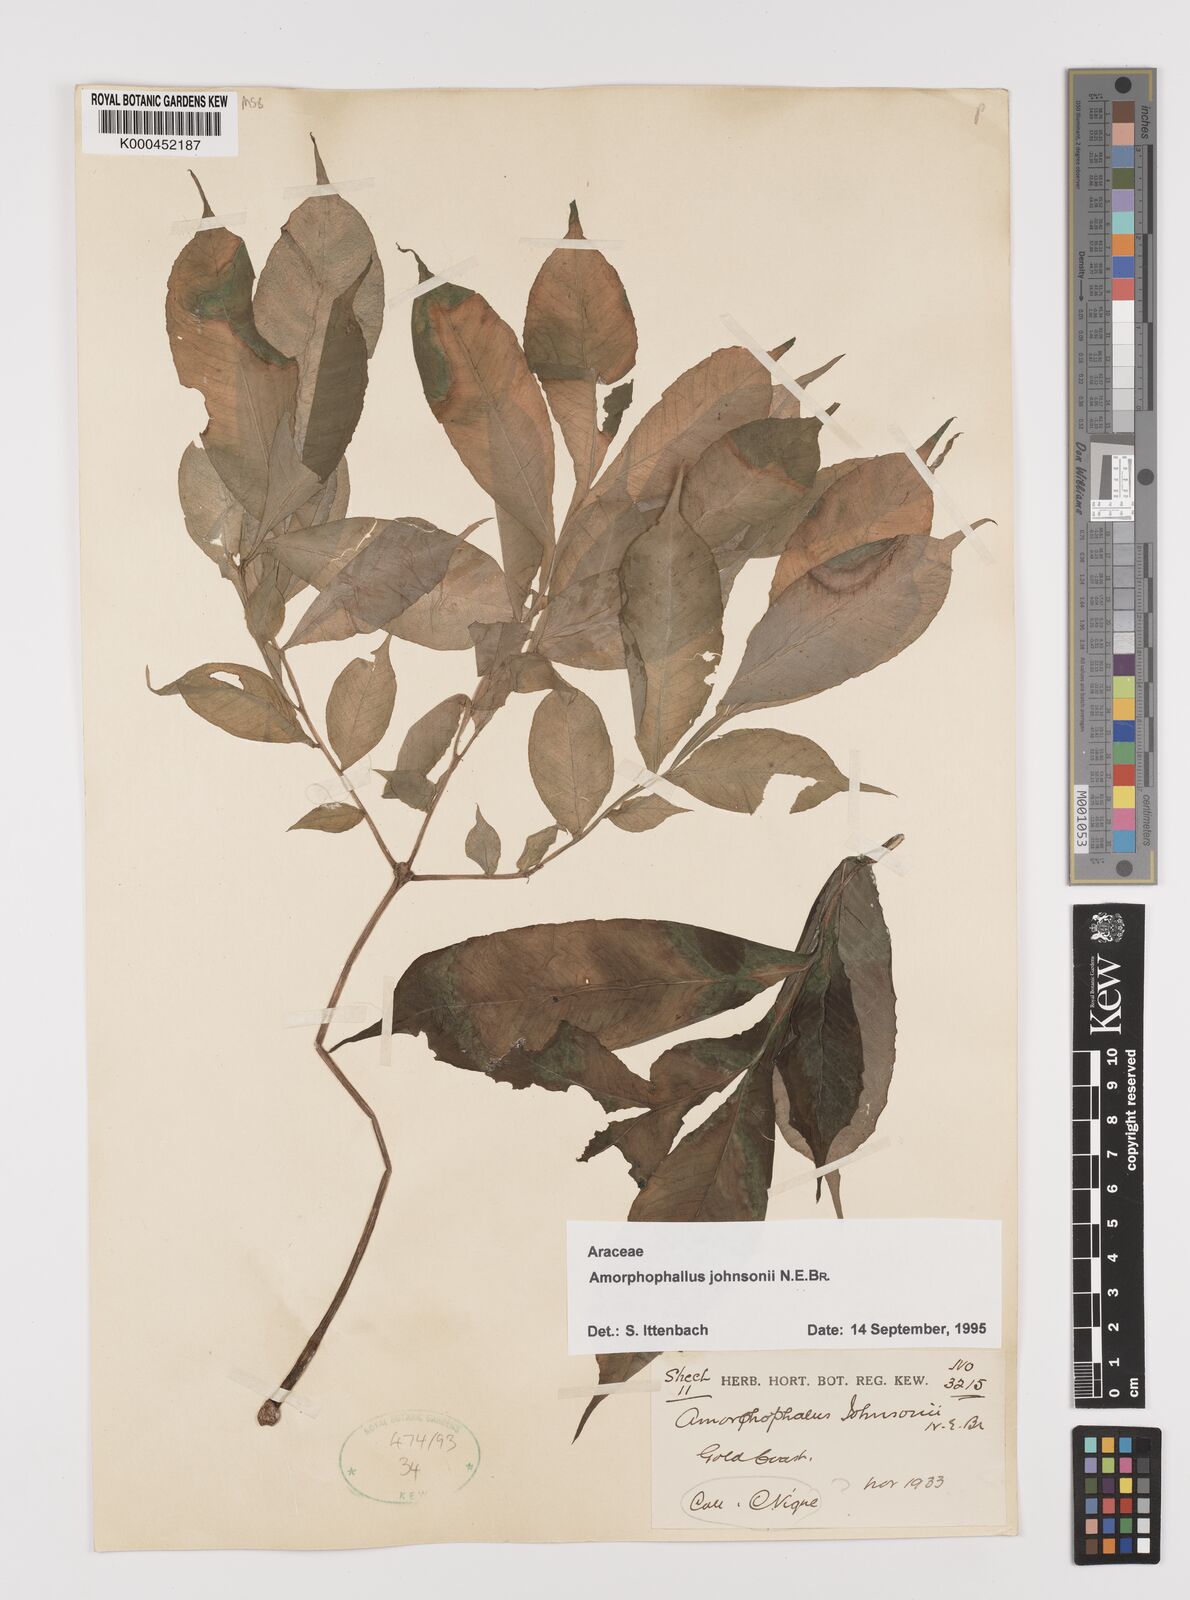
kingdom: Plantae
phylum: Tracheophyta
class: Liliopsida
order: Alismatales
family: Araceae
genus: Amorphophallus
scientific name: Amorphophallus johnsonii
